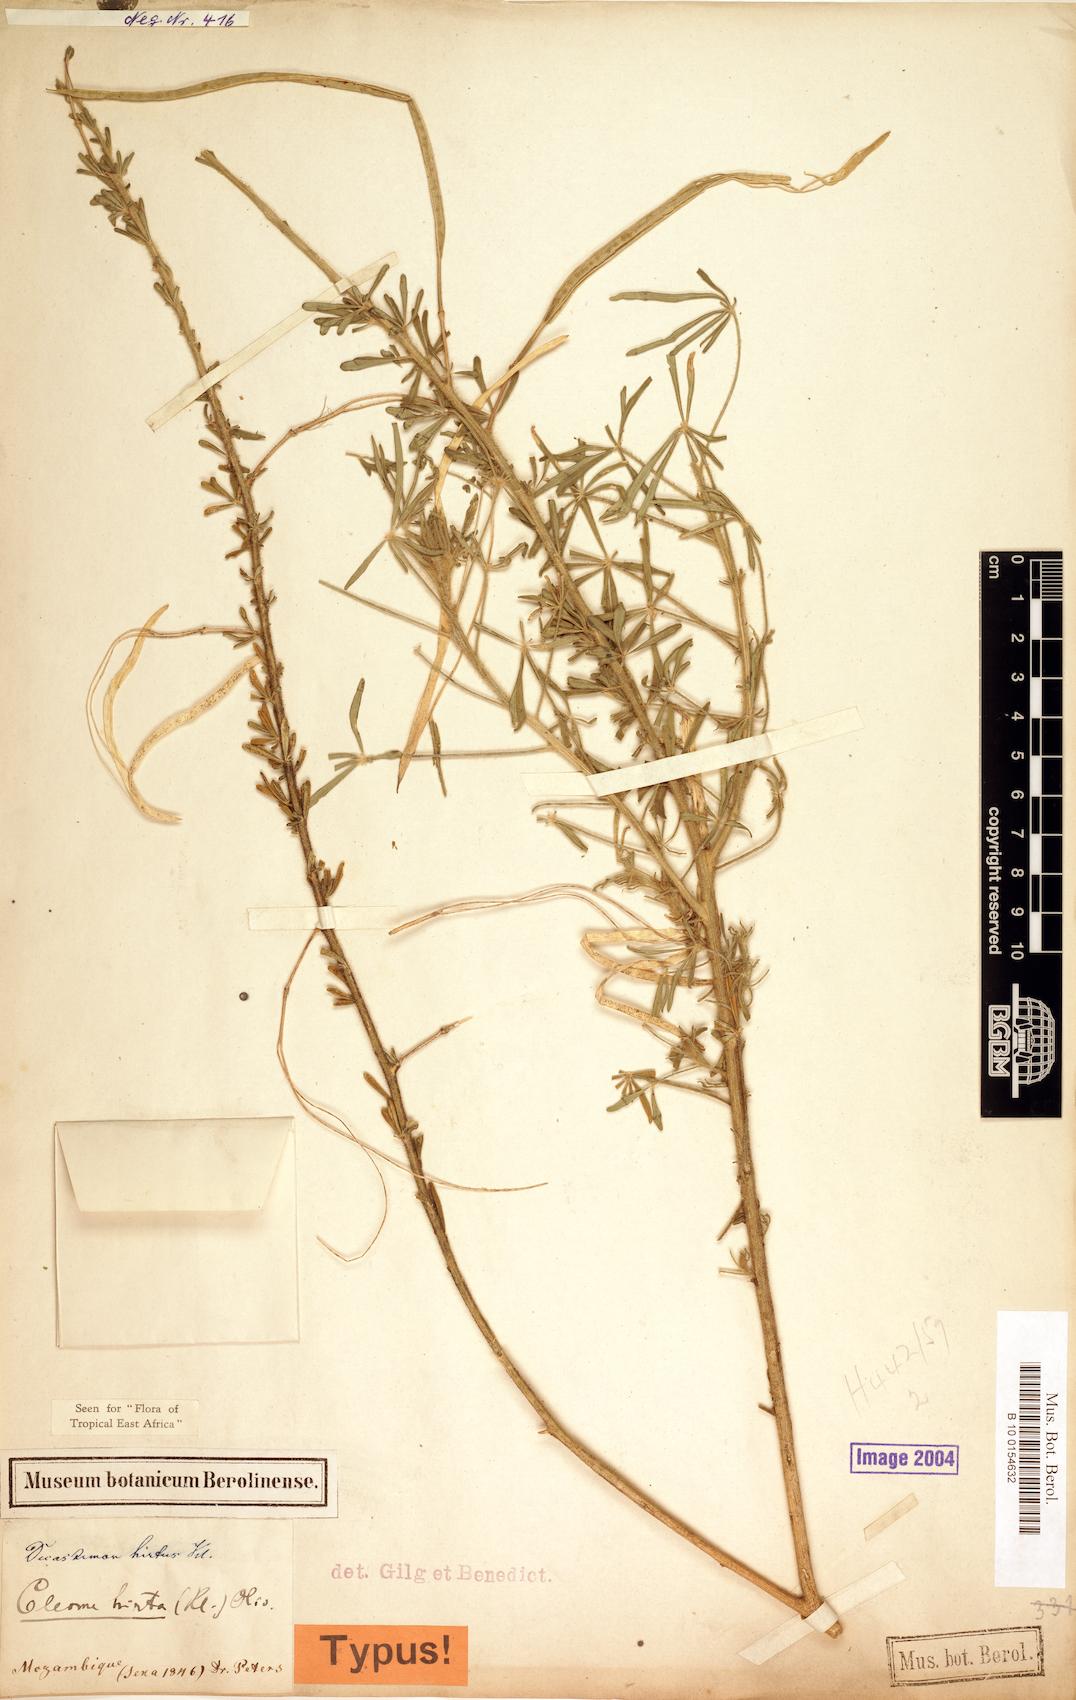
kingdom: Plantae
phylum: Tracheophyta
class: Magnoliopsida
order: Brassicales
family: Cleomaceae
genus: Sieruela
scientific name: Sieruela hirta
